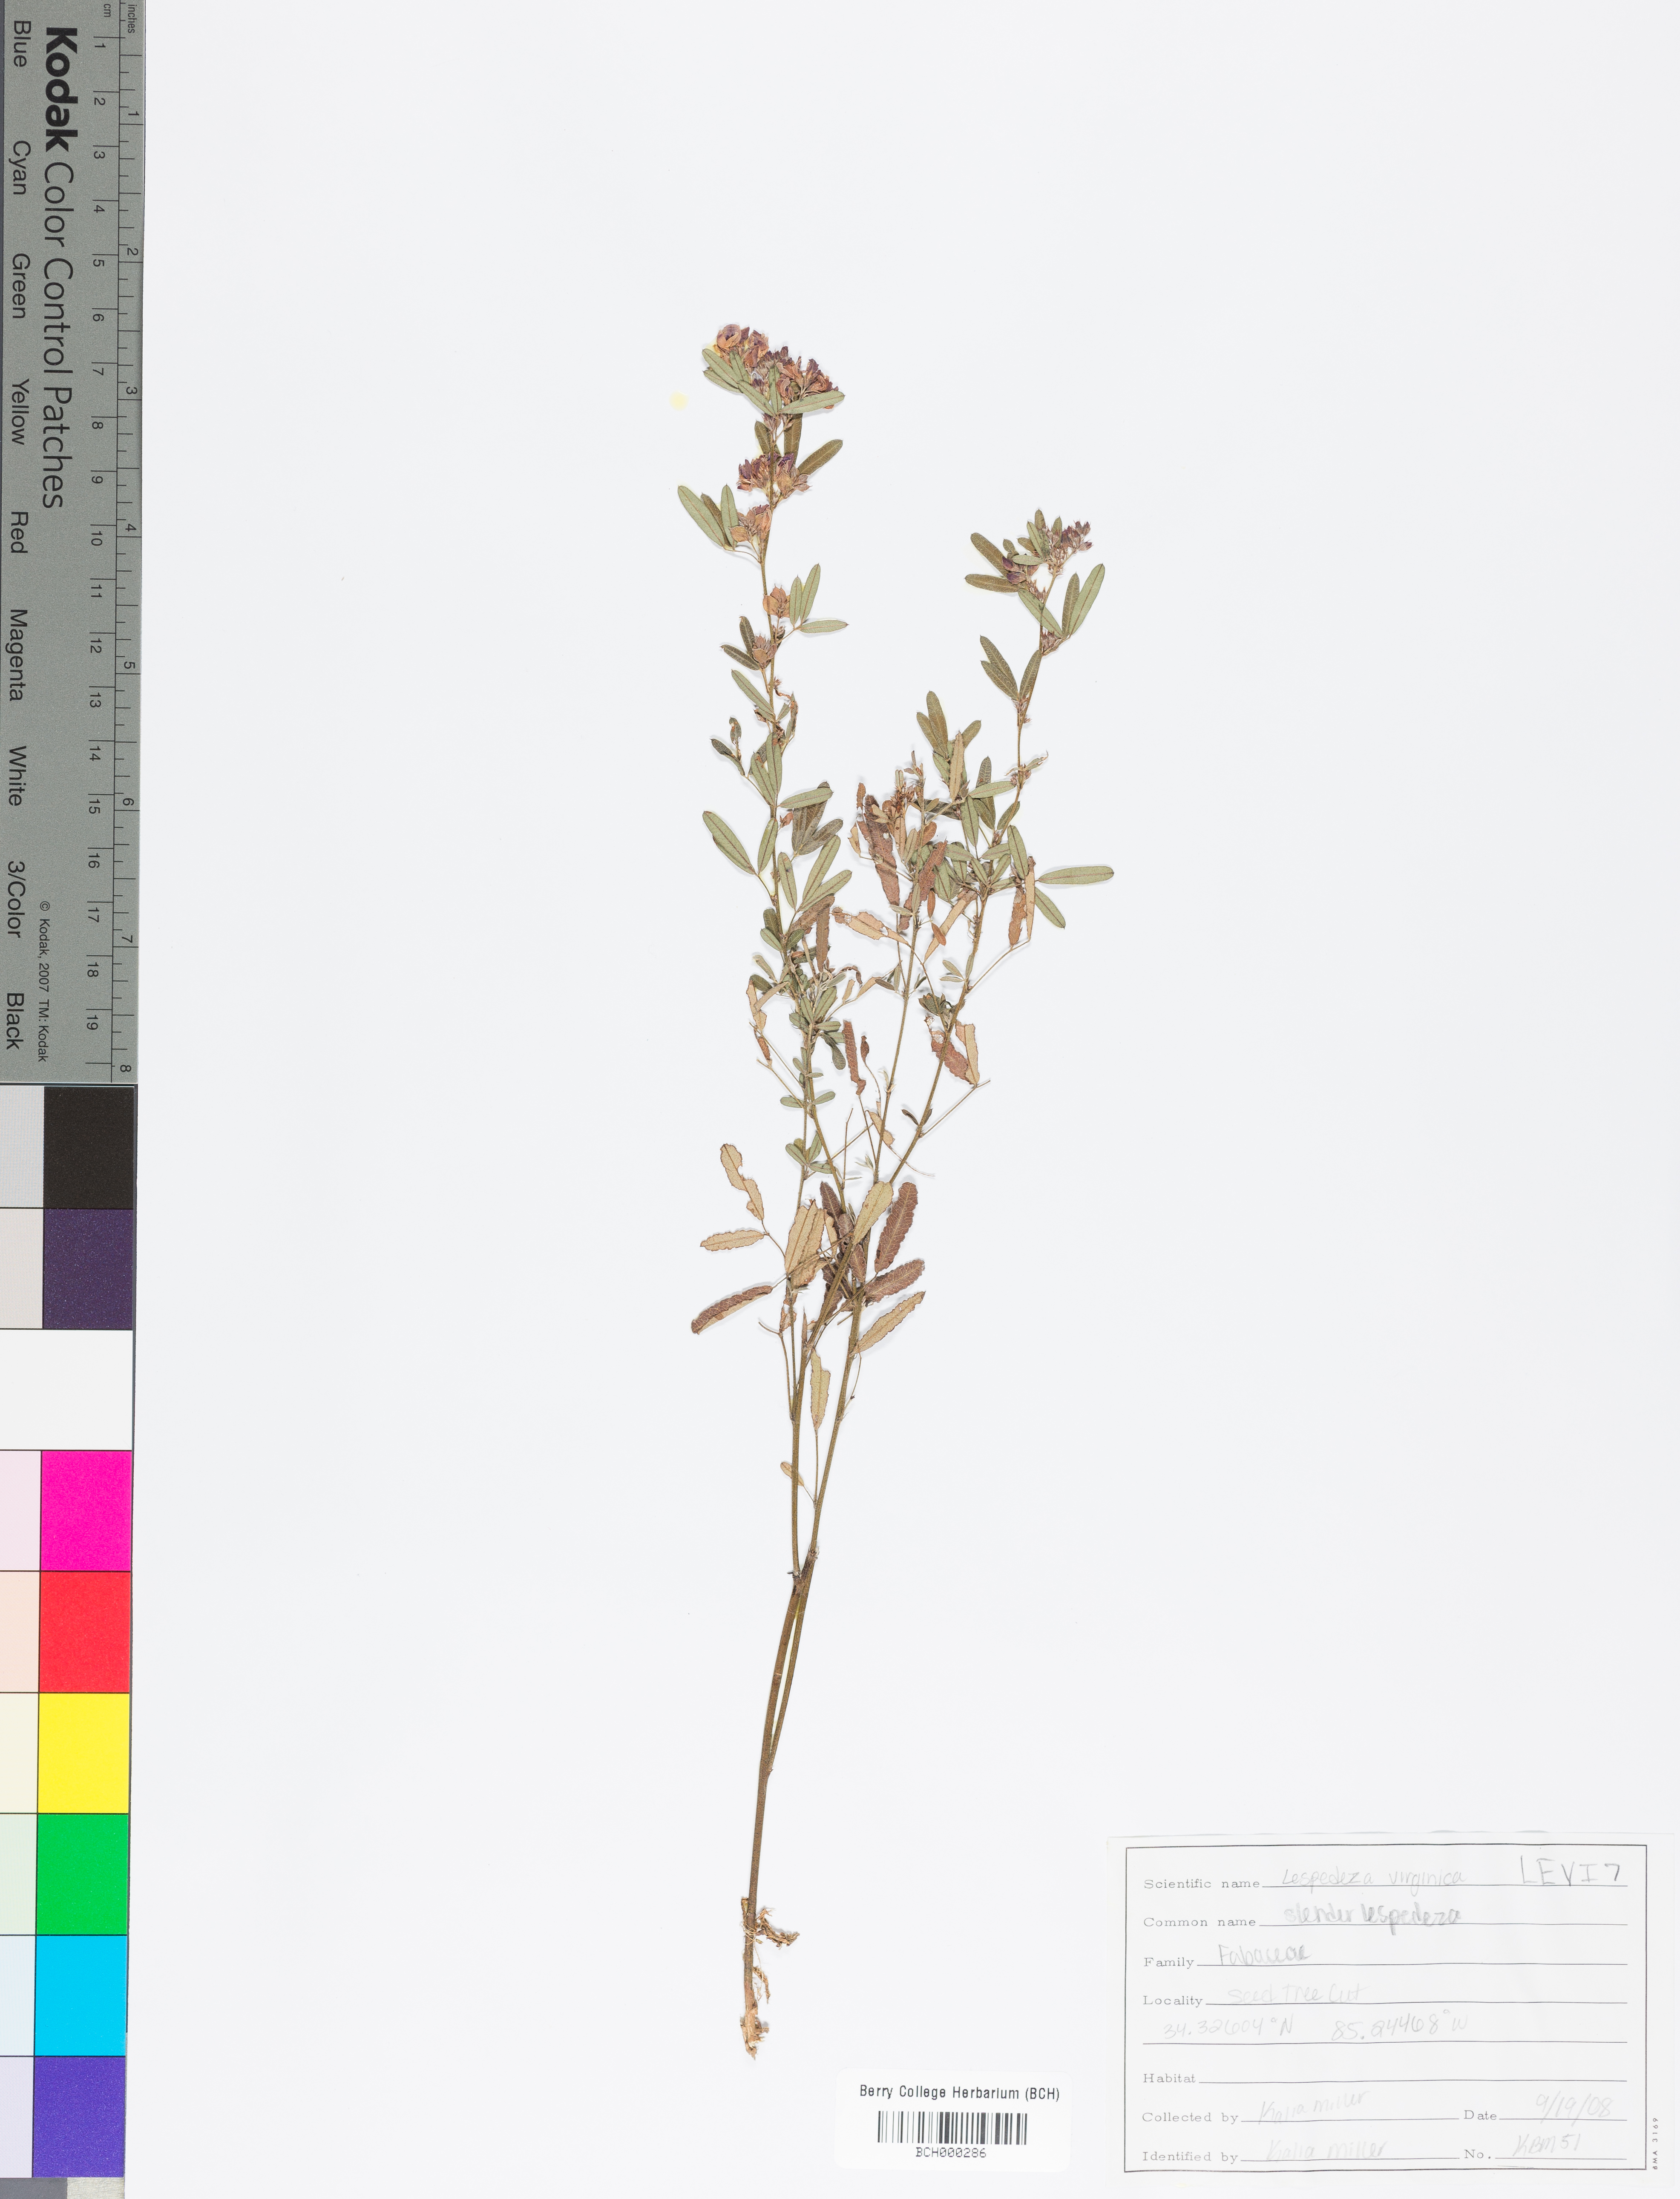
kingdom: Plantae
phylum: Tracheophyta
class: Magnoliopsida
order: Fabales
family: Fabaceae
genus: Lespedeza
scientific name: Lespedeza virginica
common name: Slender bush-clover
